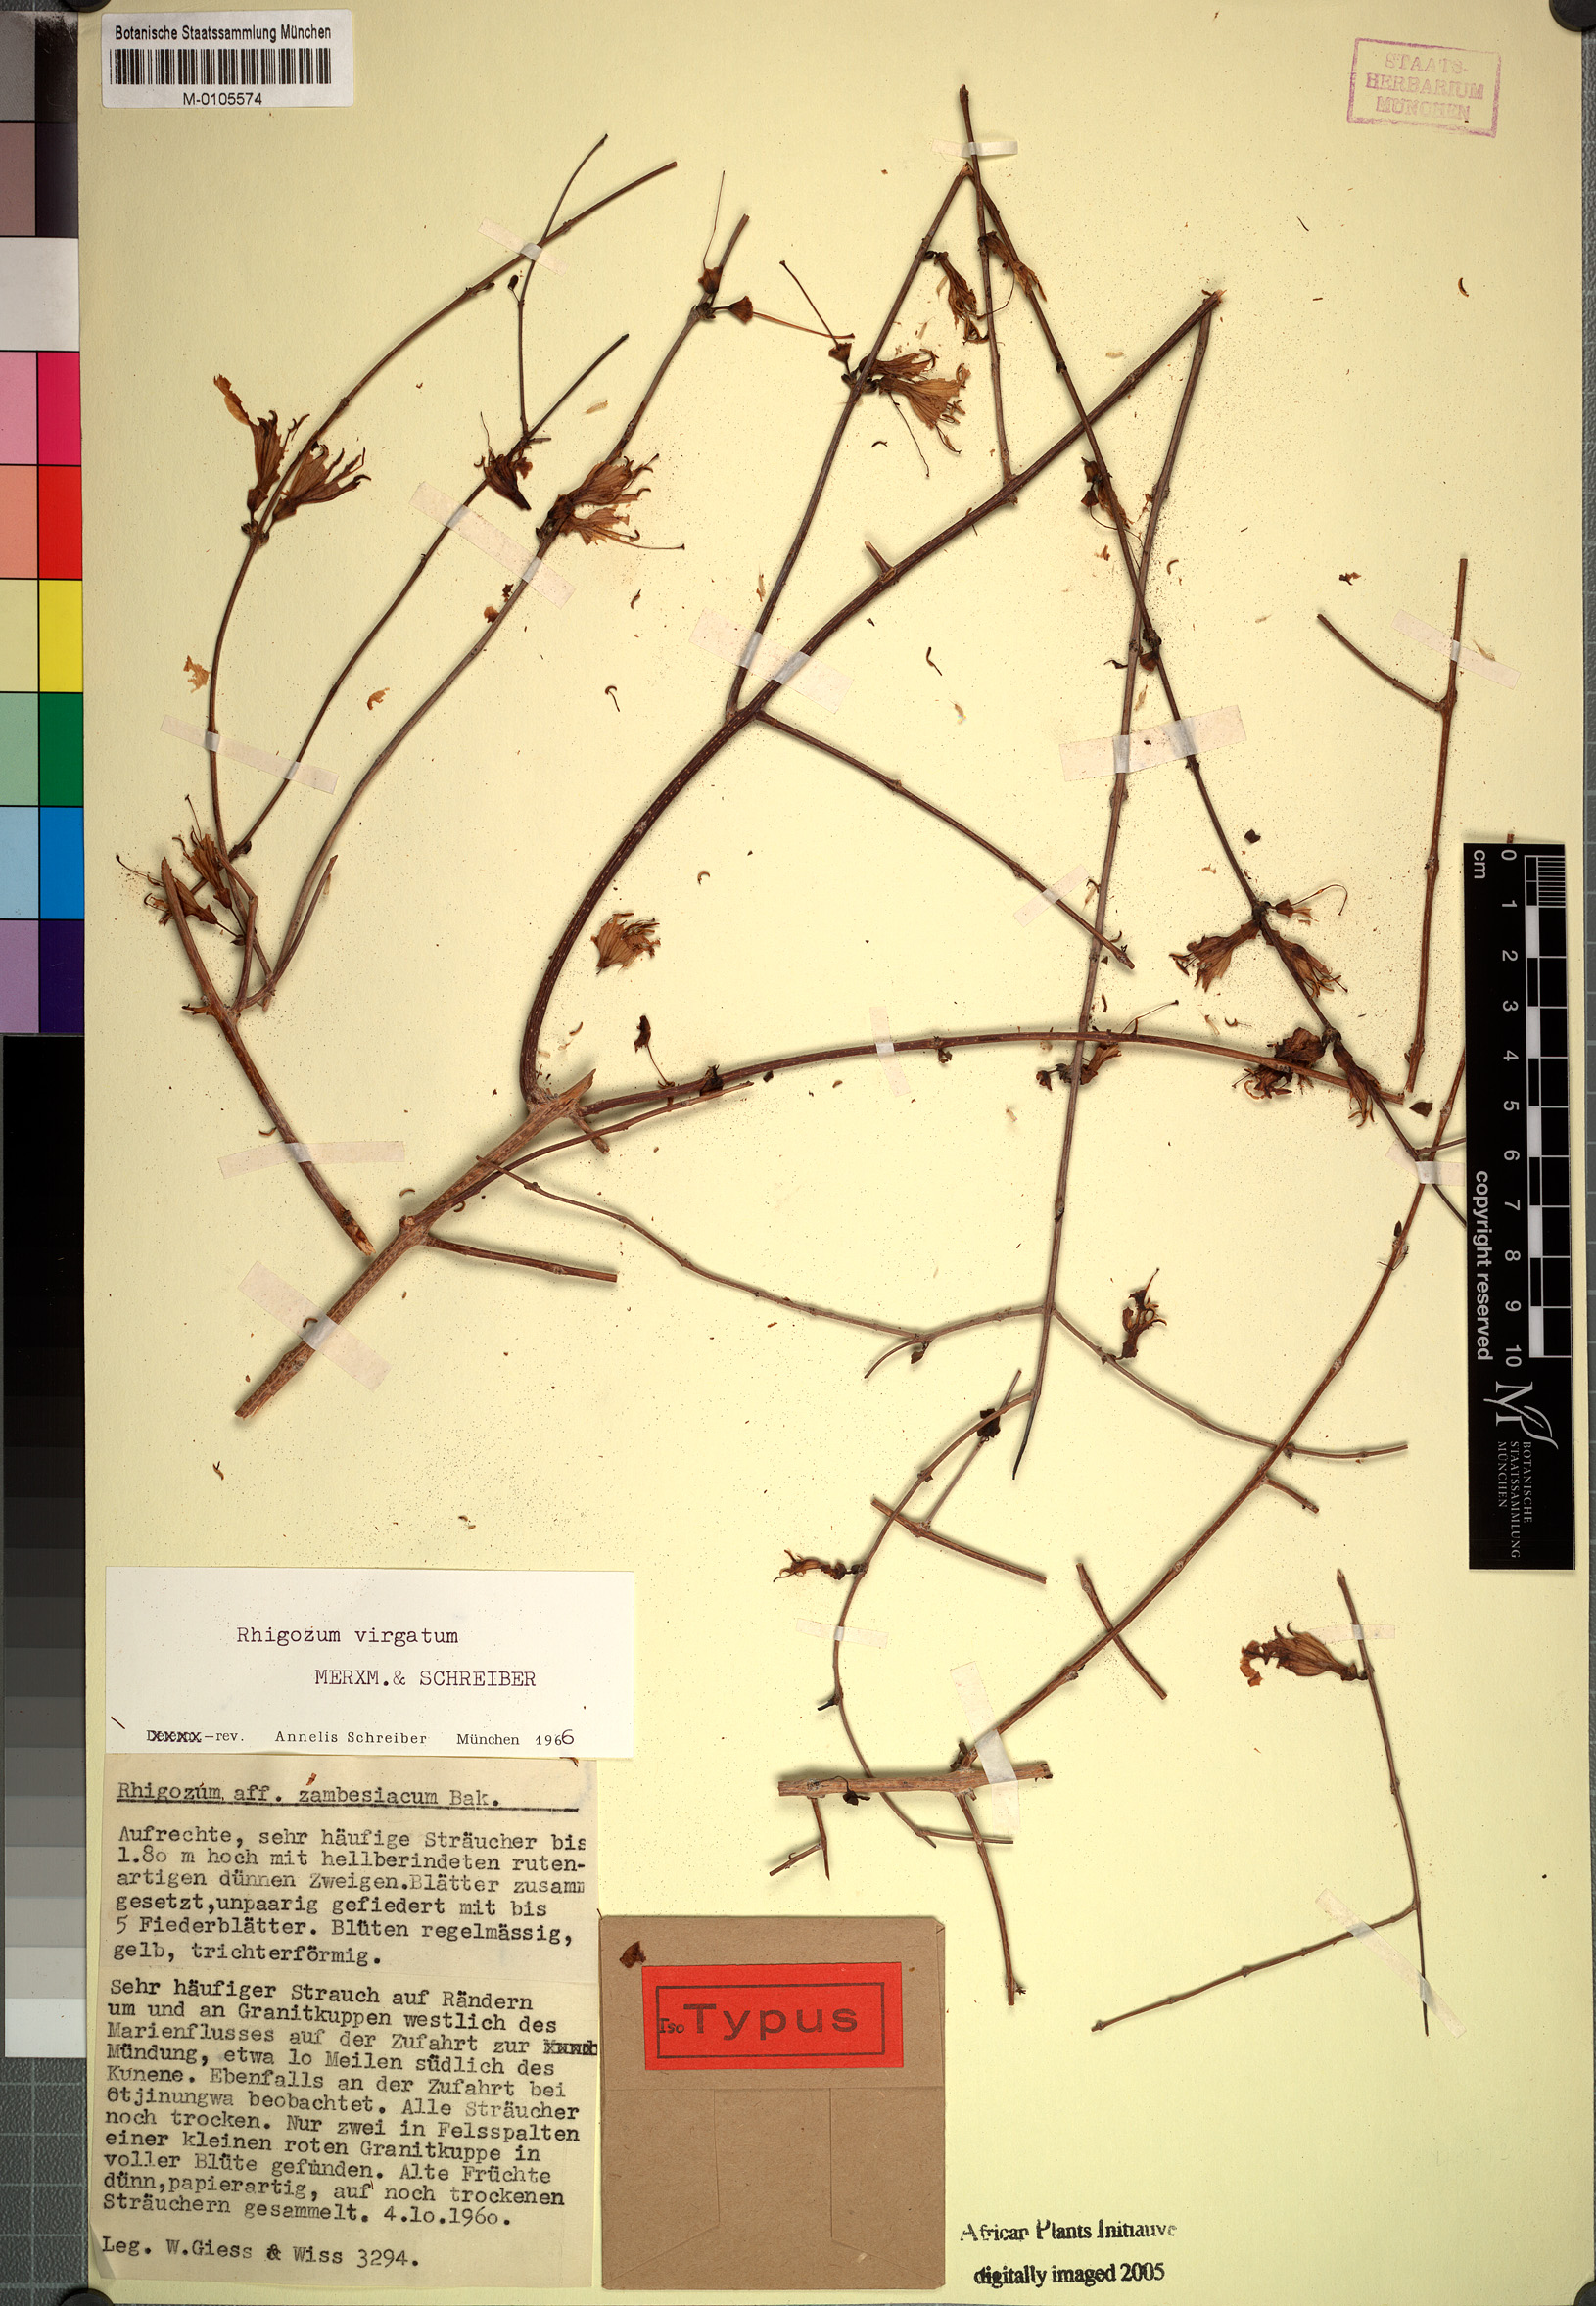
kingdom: Plantae
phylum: Tracheophyta
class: Magnoliopsida
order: Lamiales
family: Bignoniaceae
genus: Rhigozum
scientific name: Rhigozum virgatum
